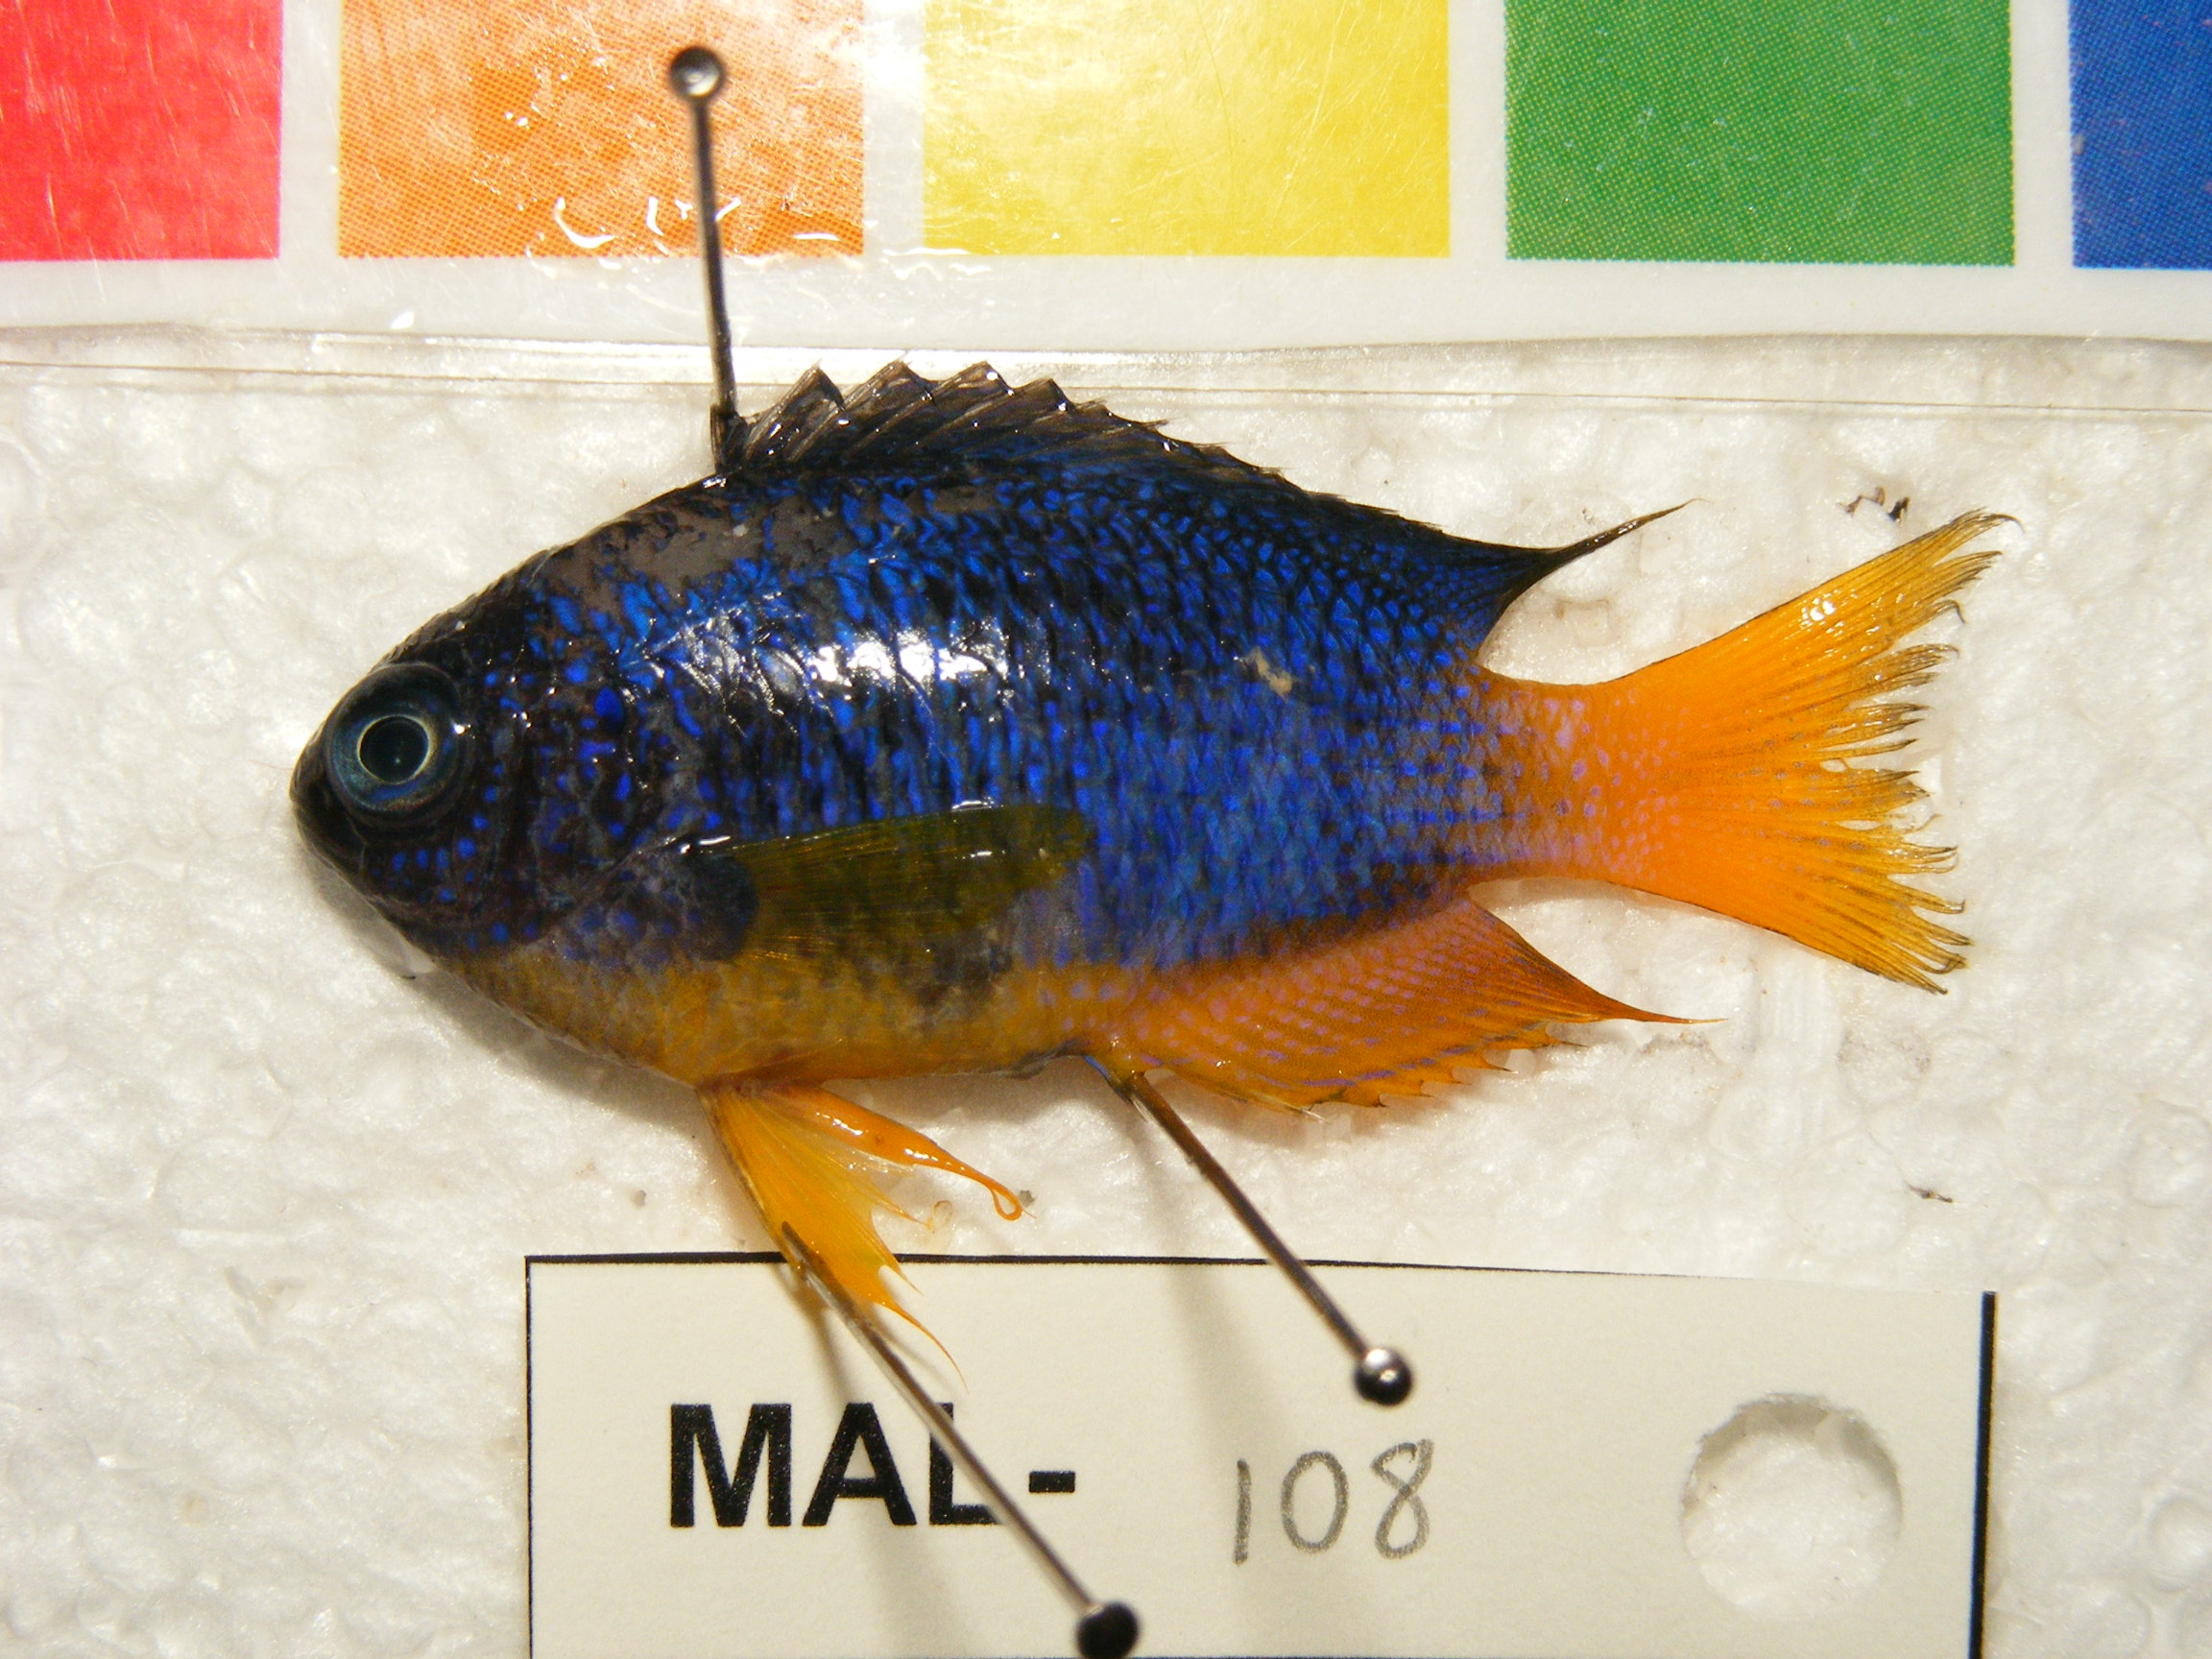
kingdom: Animalia
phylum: Chordata
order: Perciformes
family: Pomacentridae
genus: Pomacentrus
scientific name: Pomacentrus caeruleus
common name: Caerulean damsel
